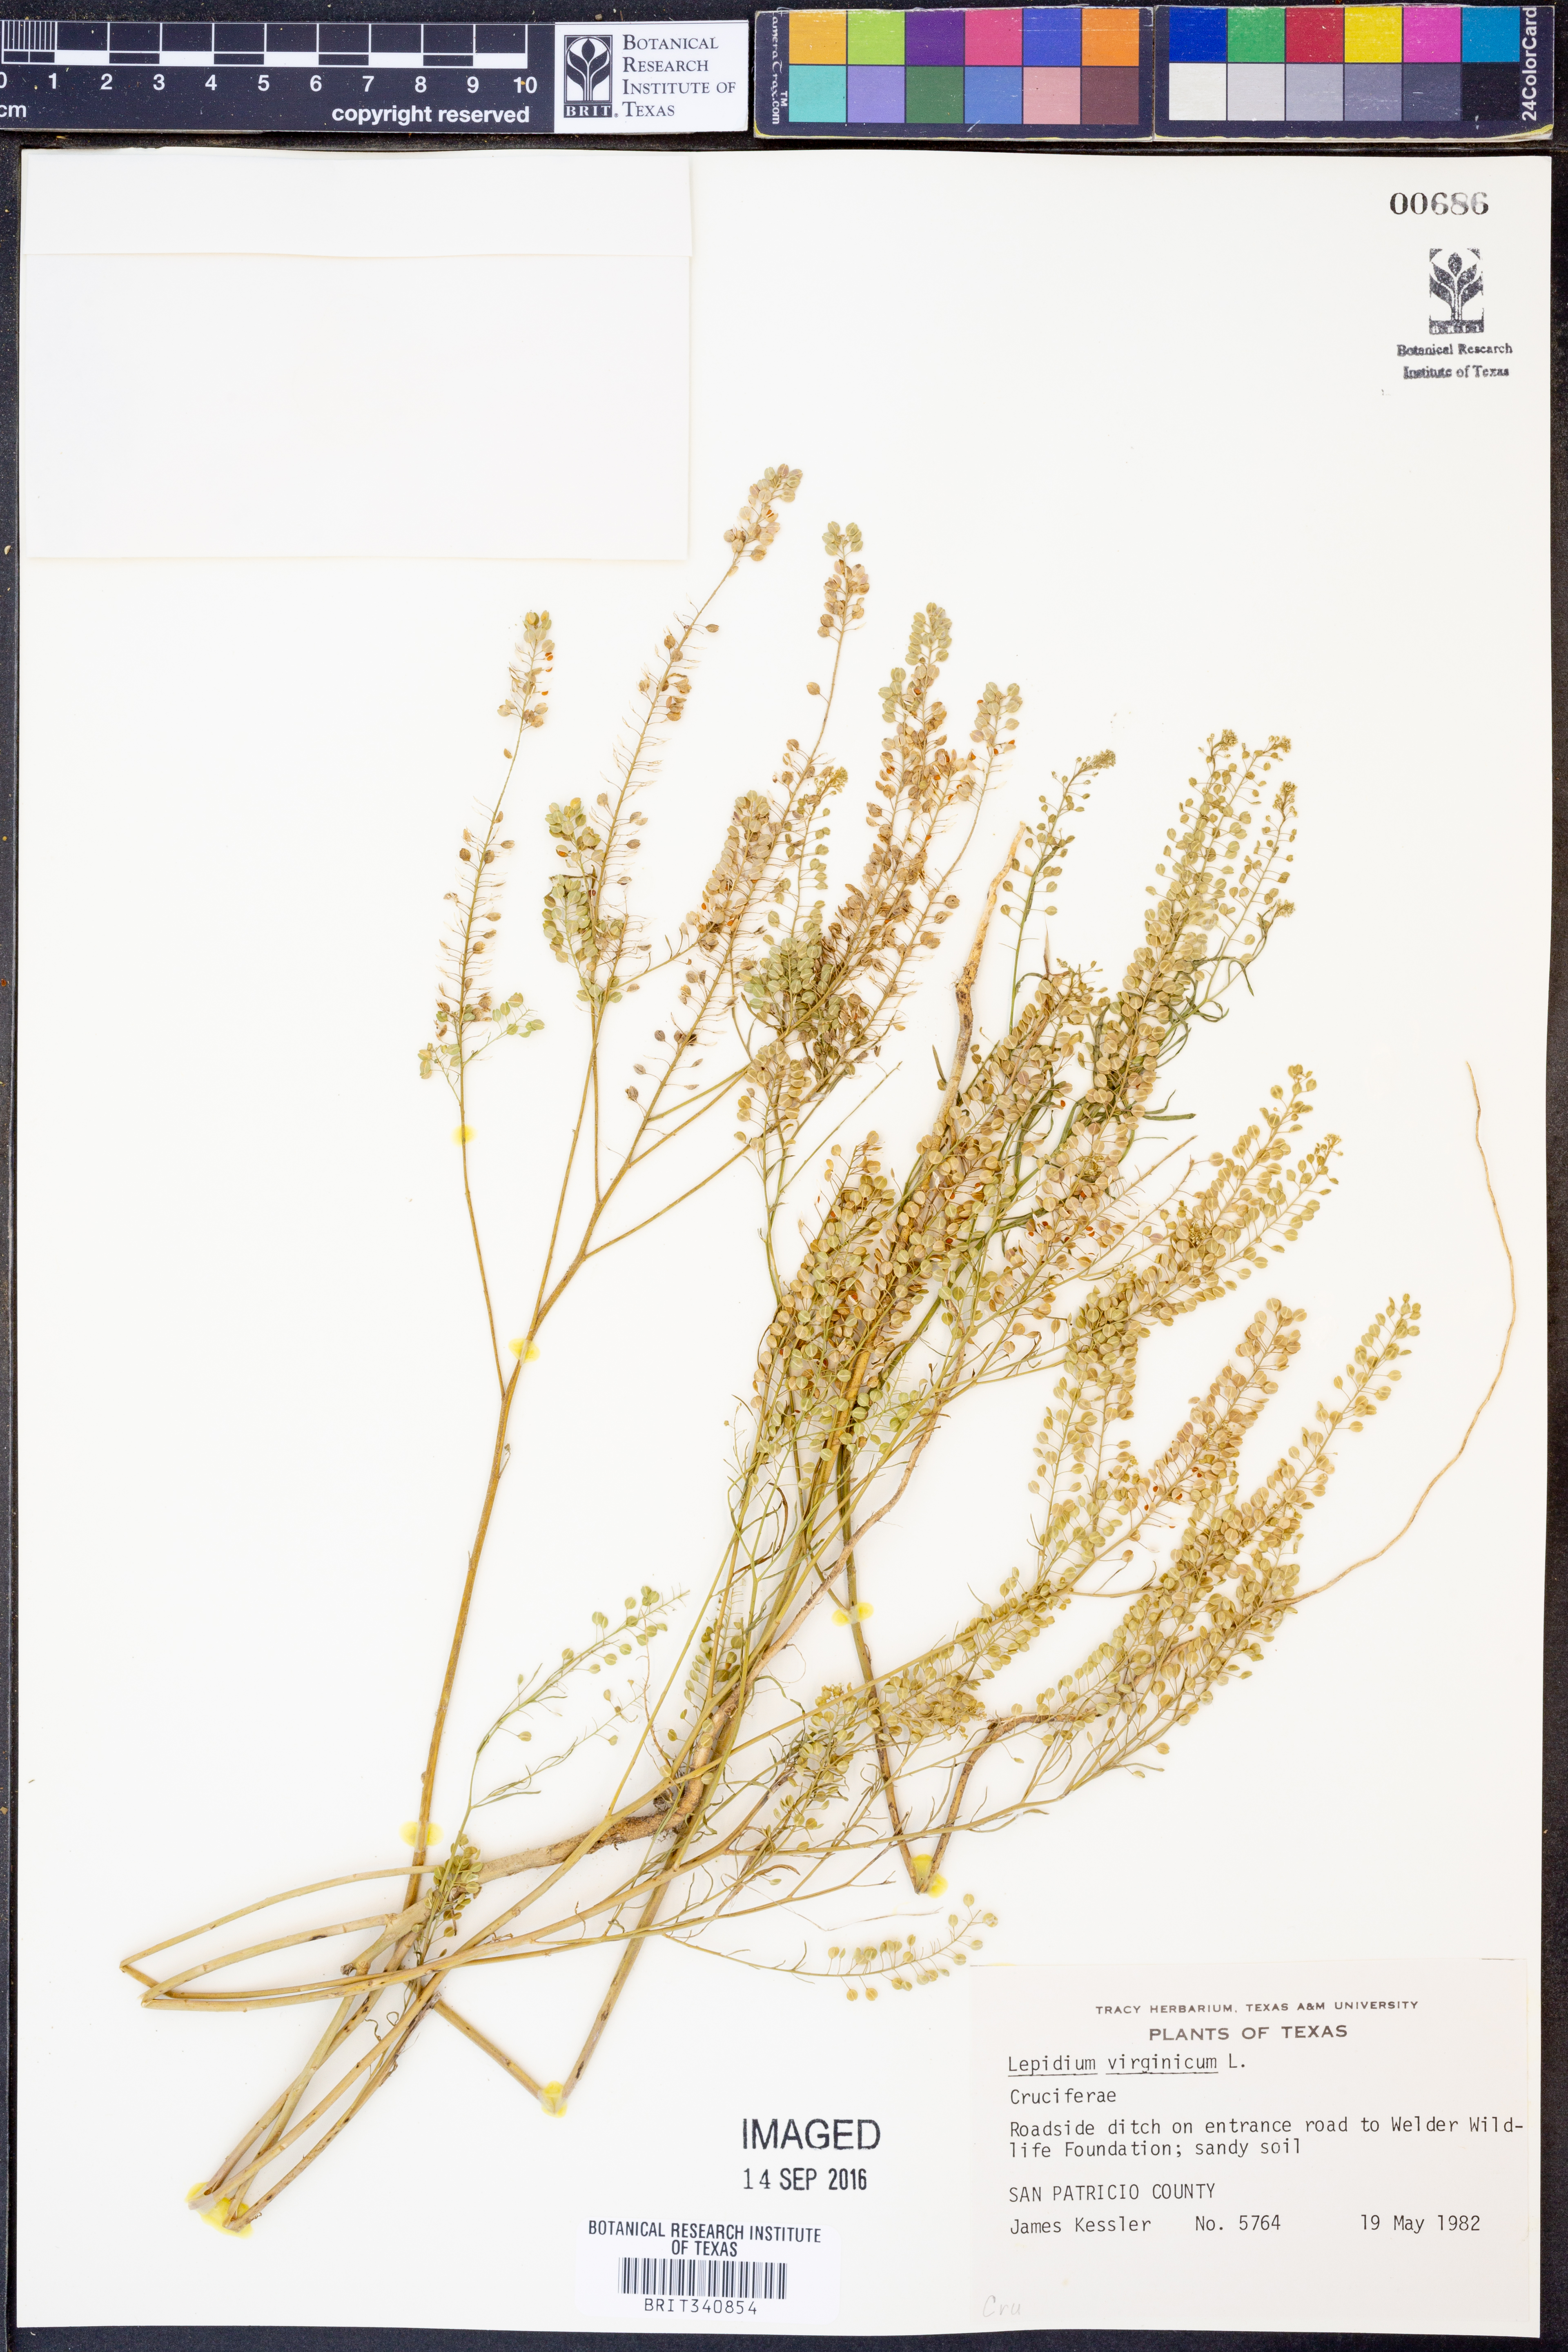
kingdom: Plantae
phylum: Tracheophyta
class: Magnoliopsida
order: Brassicales
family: Brassicaceae
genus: Lepidium
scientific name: Lepidium virginicum
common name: Least pepperwort
